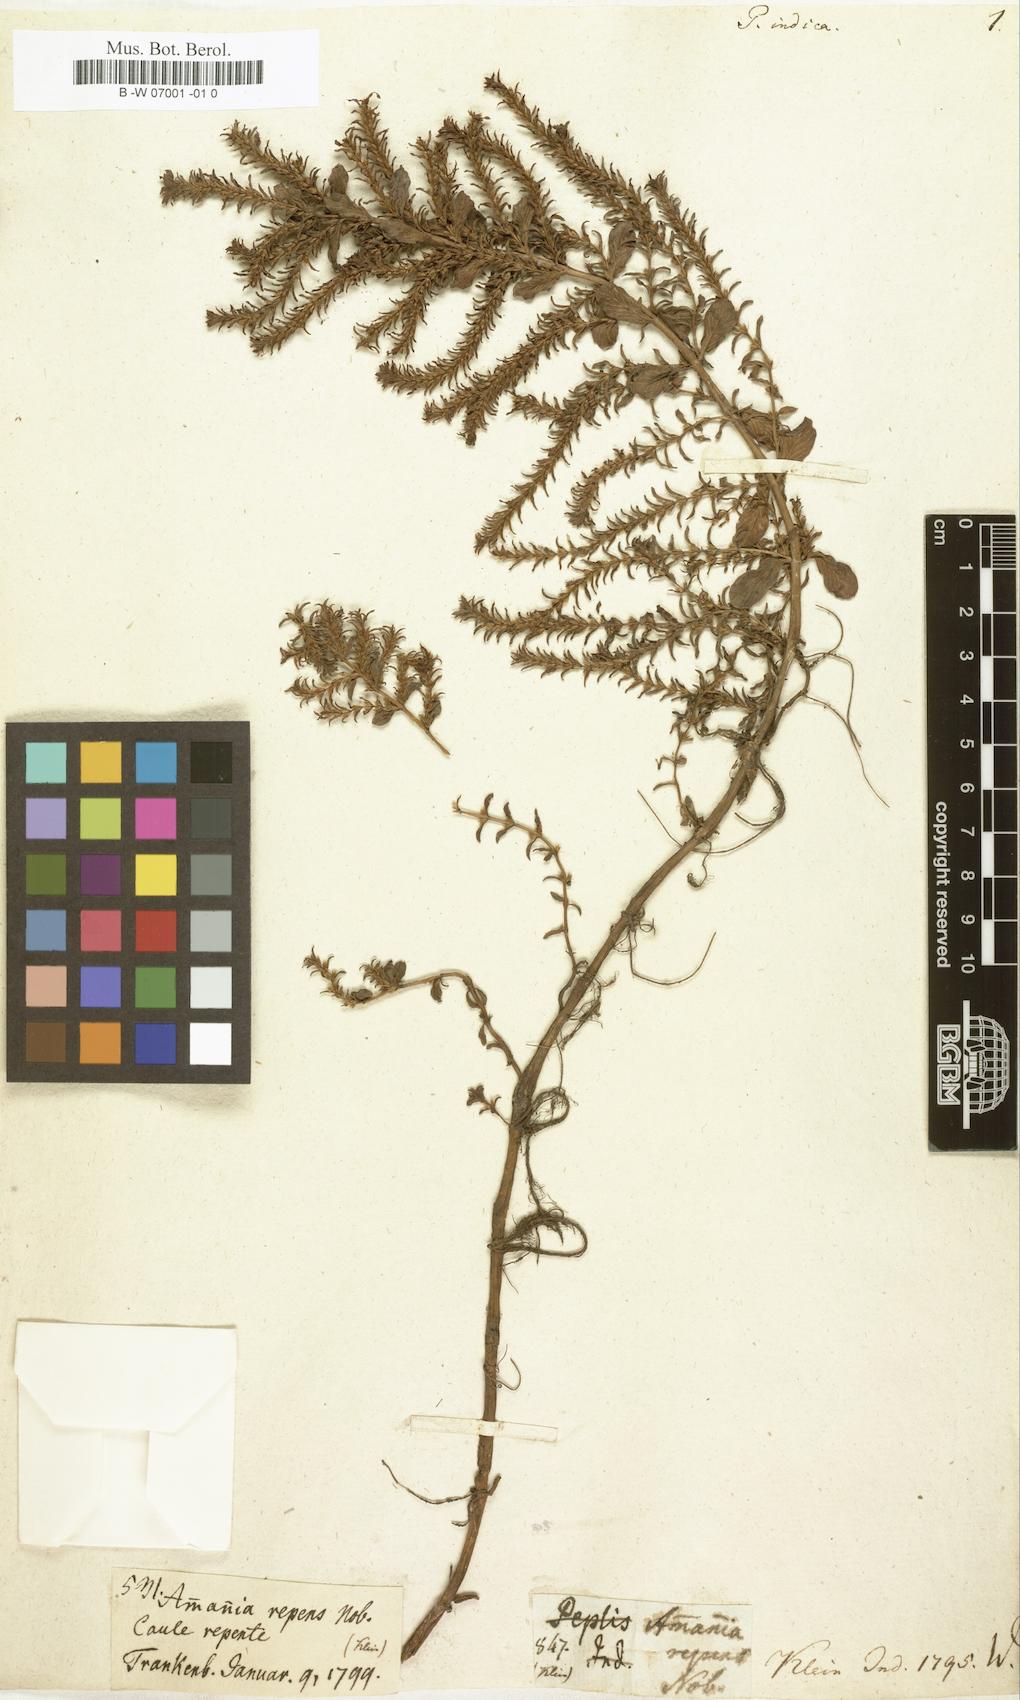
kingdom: Plantae
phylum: Tracheophyta
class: Magnoliopsida
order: Myrtales
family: Lythraceae
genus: Rotala
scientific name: Rotala indica
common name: Indian toothcup
